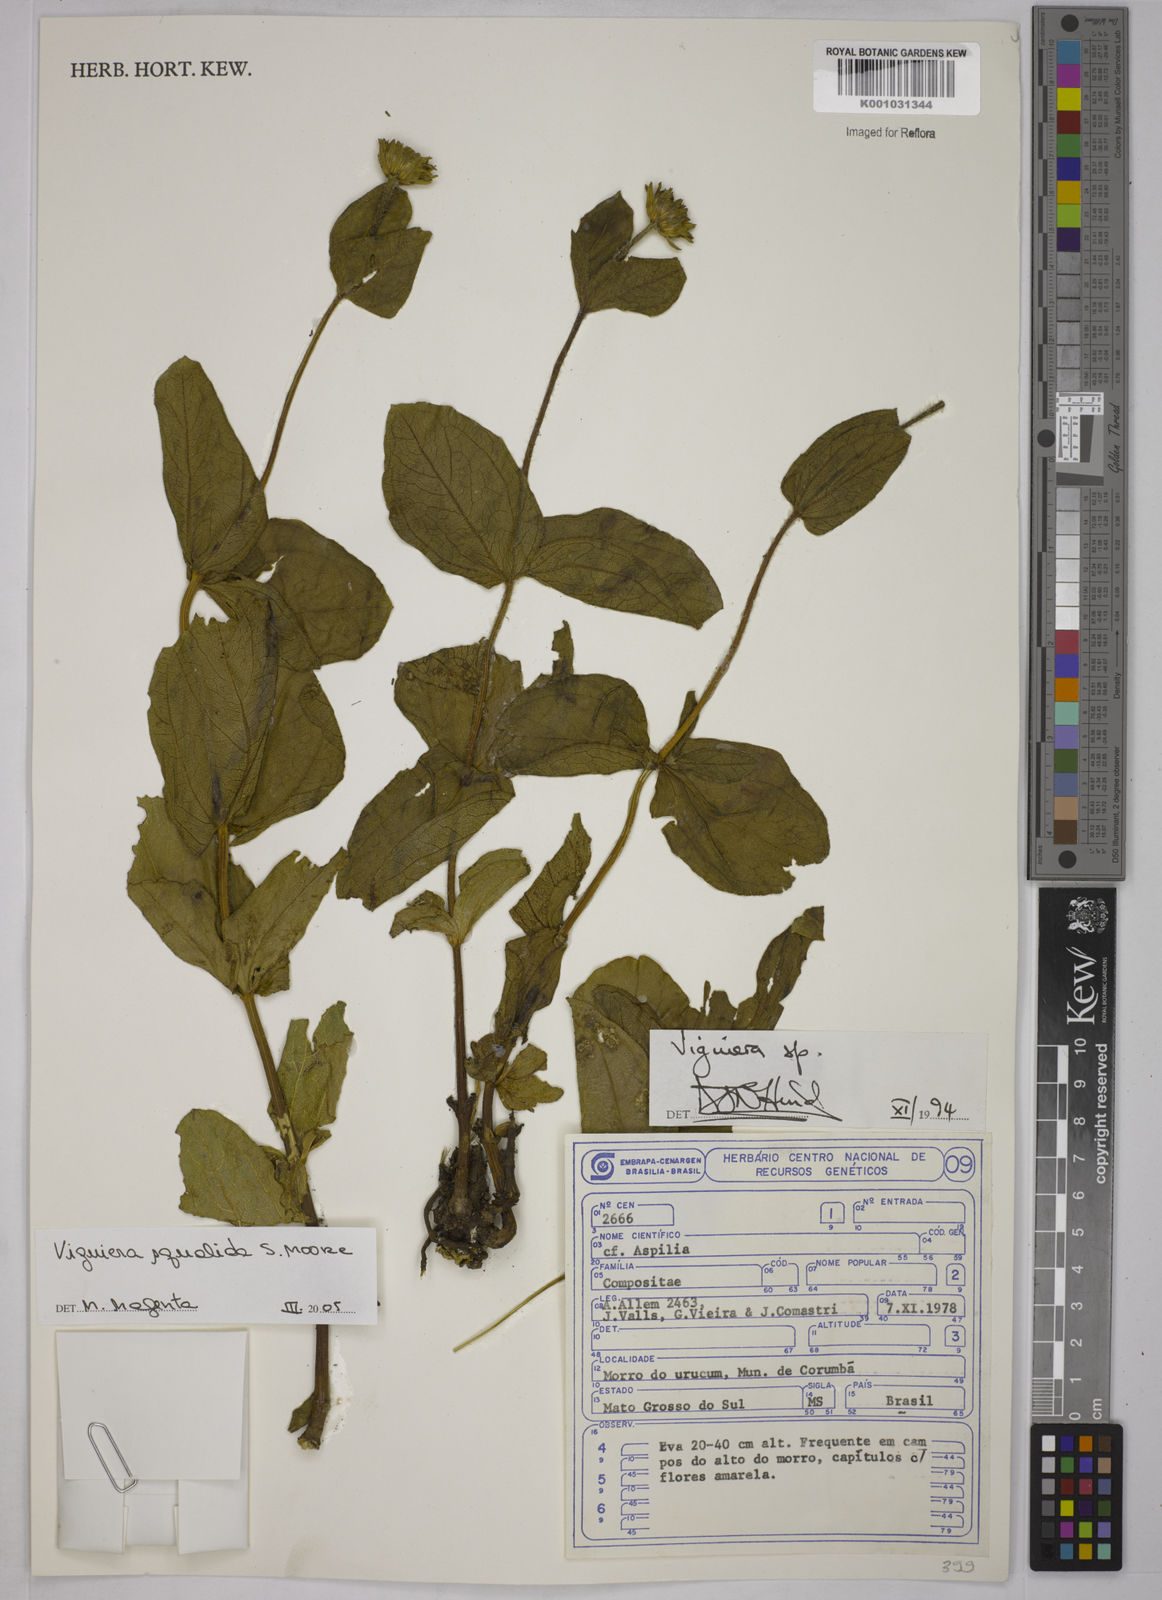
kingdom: Plantae
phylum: Tracheophyta
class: Magnoliopsida
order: Asterales
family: Asteraceae
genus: Aldama
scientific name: Aldama squalida
